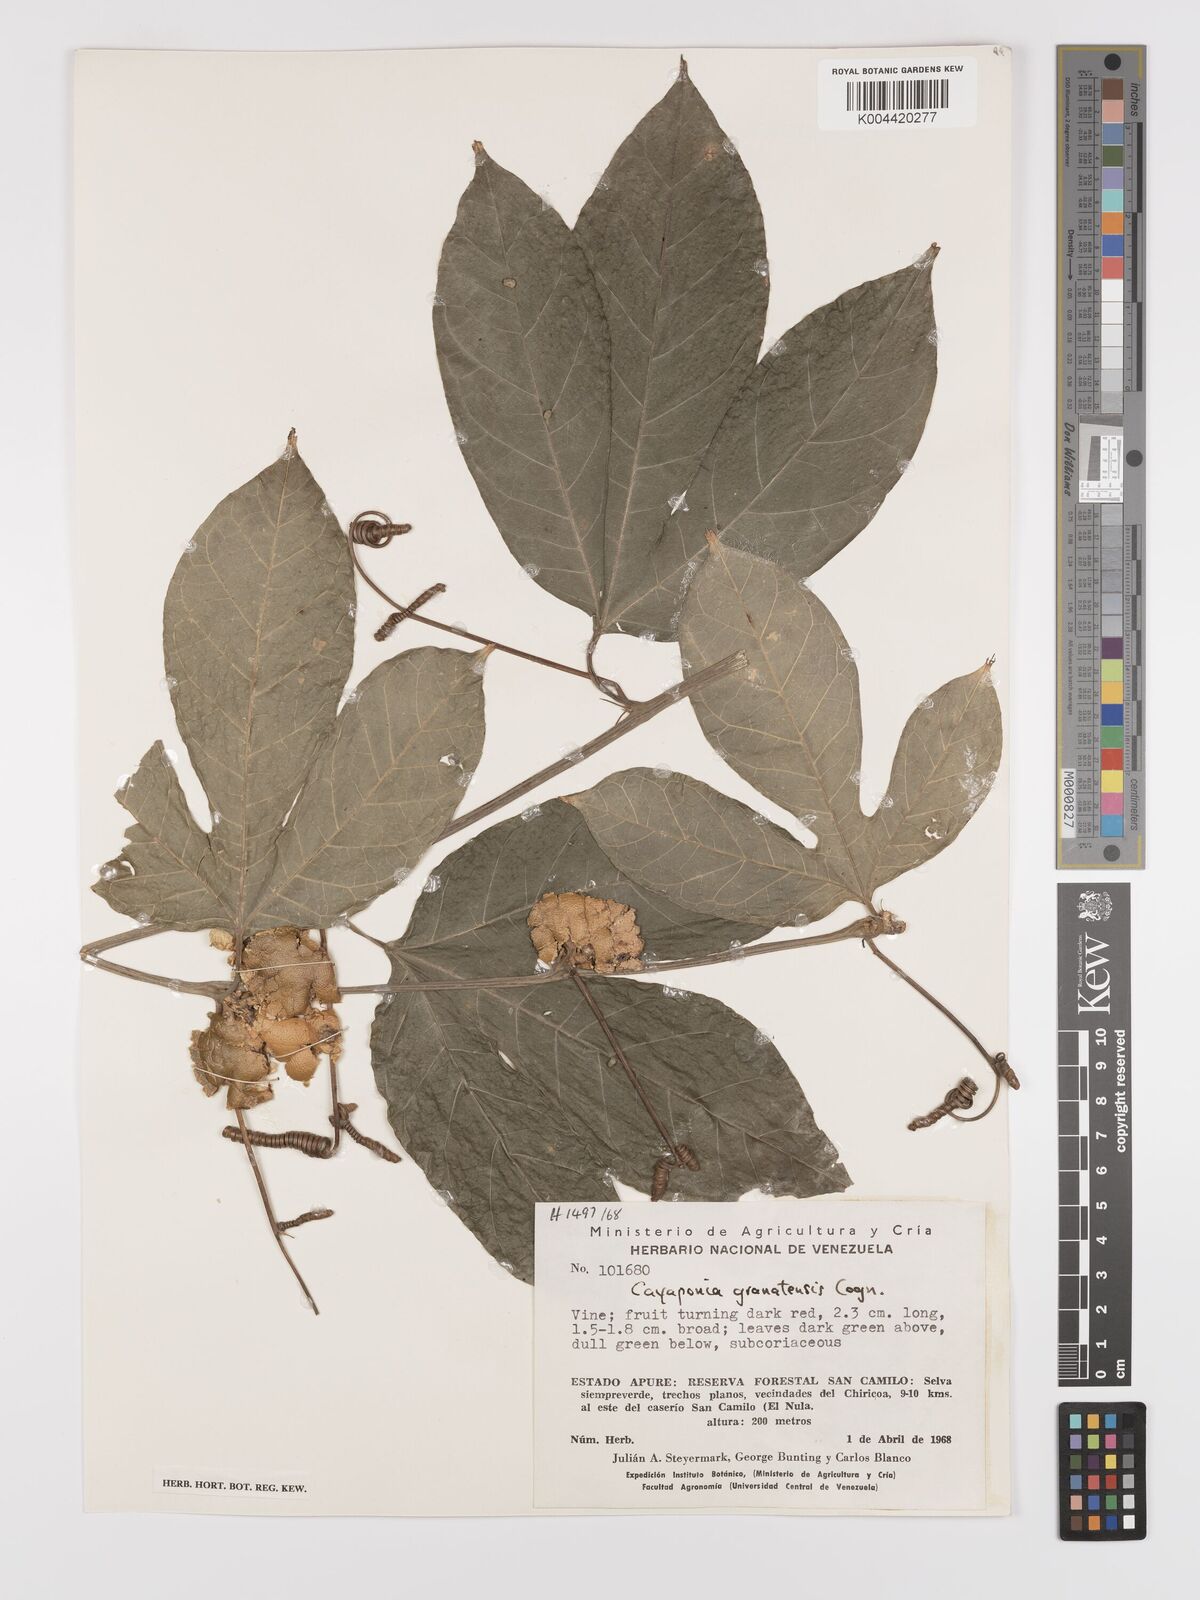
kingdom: Plantae
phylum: Tracheophyta
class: Magnoliopsida
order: Cucurbitales
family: Cucurbitaceae
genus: Cayaponia
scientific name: Cayaponia granatensis
